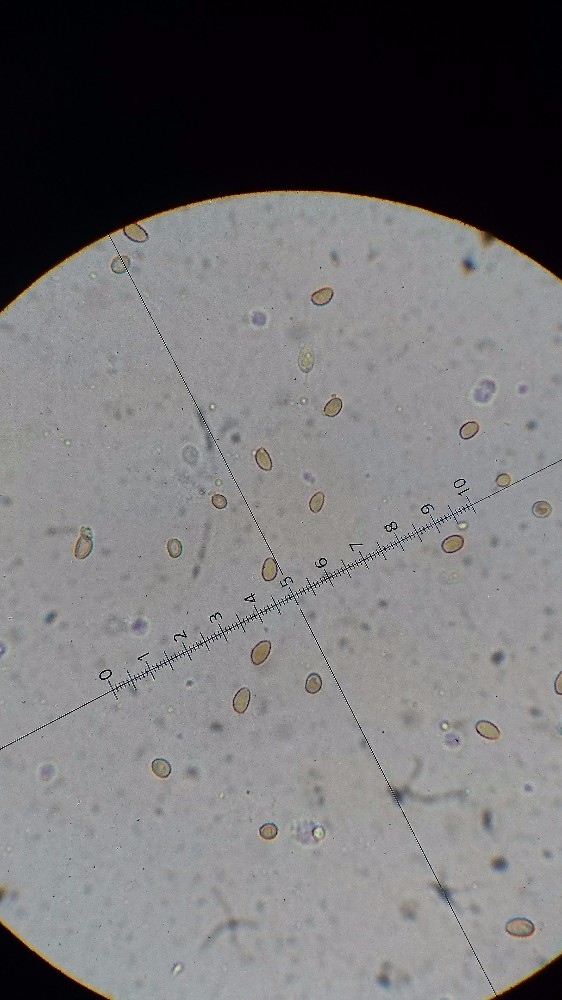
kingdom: Fungi
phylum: Basidiomycota
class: Agaricomycetes
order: Agaricales
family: Strophariaceae
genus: Pholiota
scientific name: Pholiota
